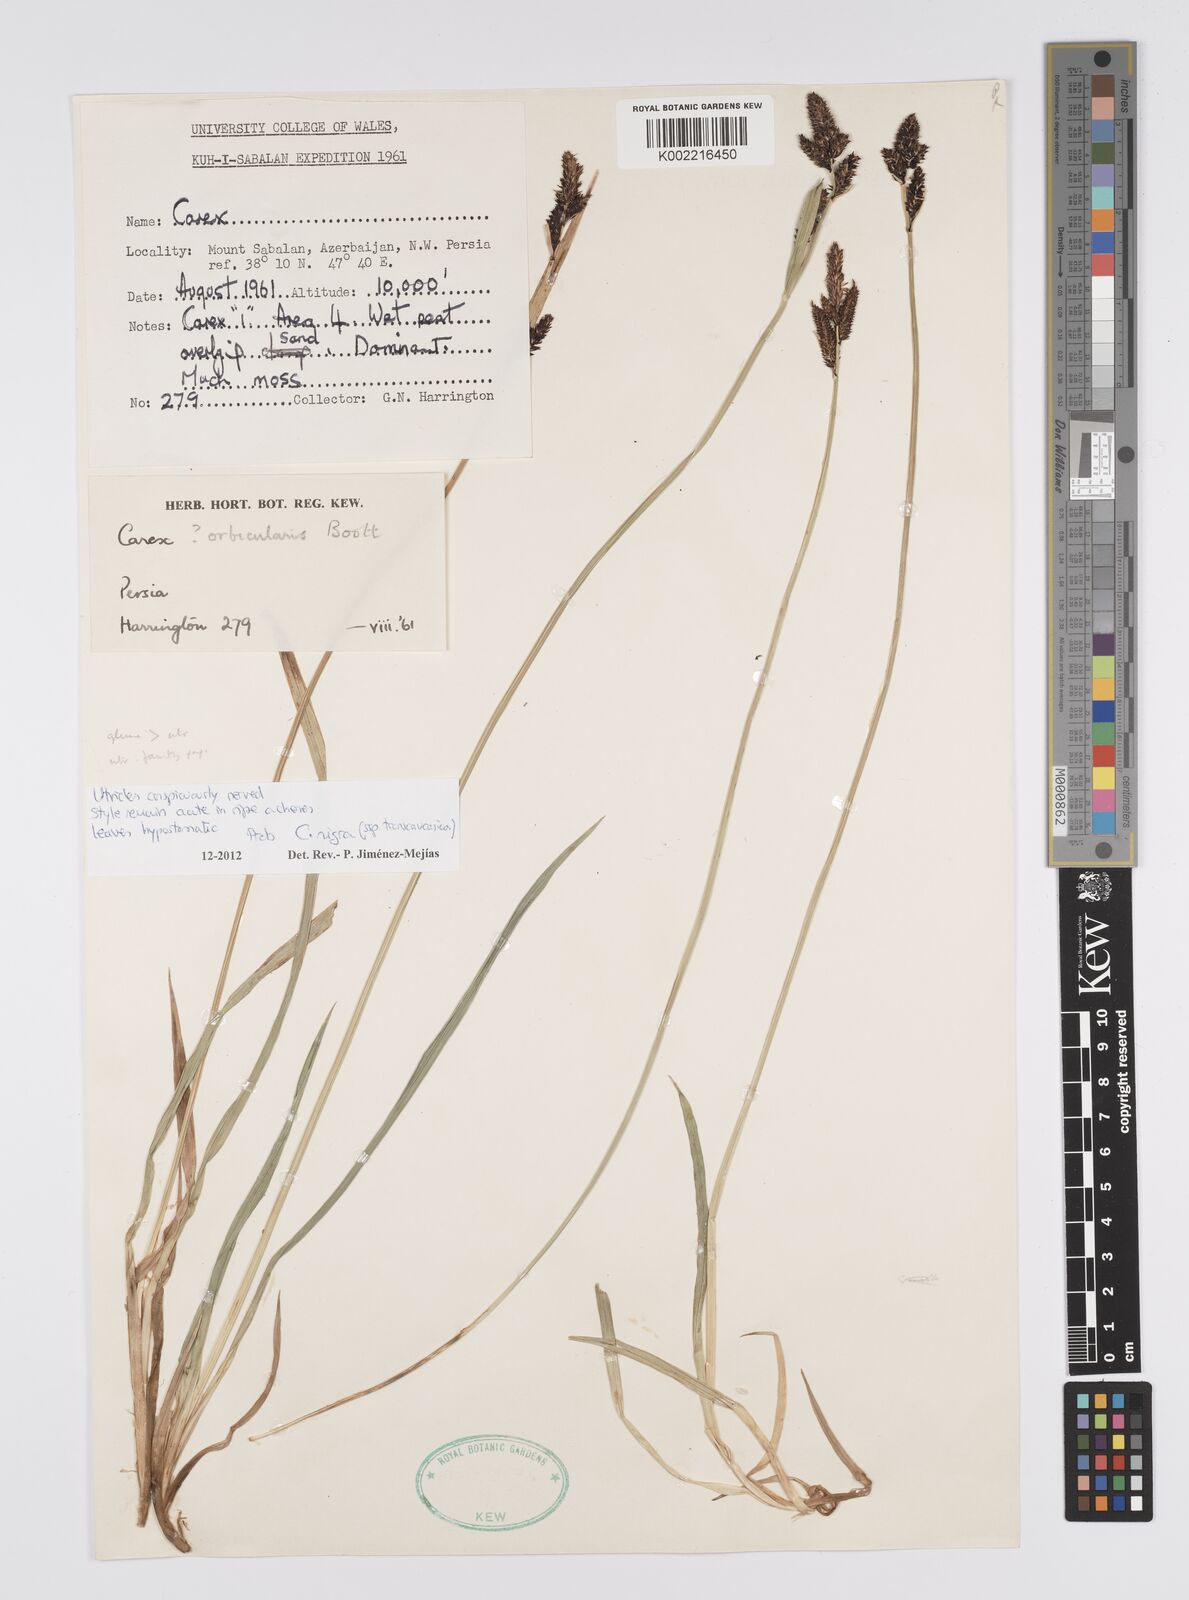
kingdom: Plantae
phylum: Tracheophyta
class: Liliopsida
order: Poales
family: Cyperaceae
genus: Carex
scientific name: Carex
